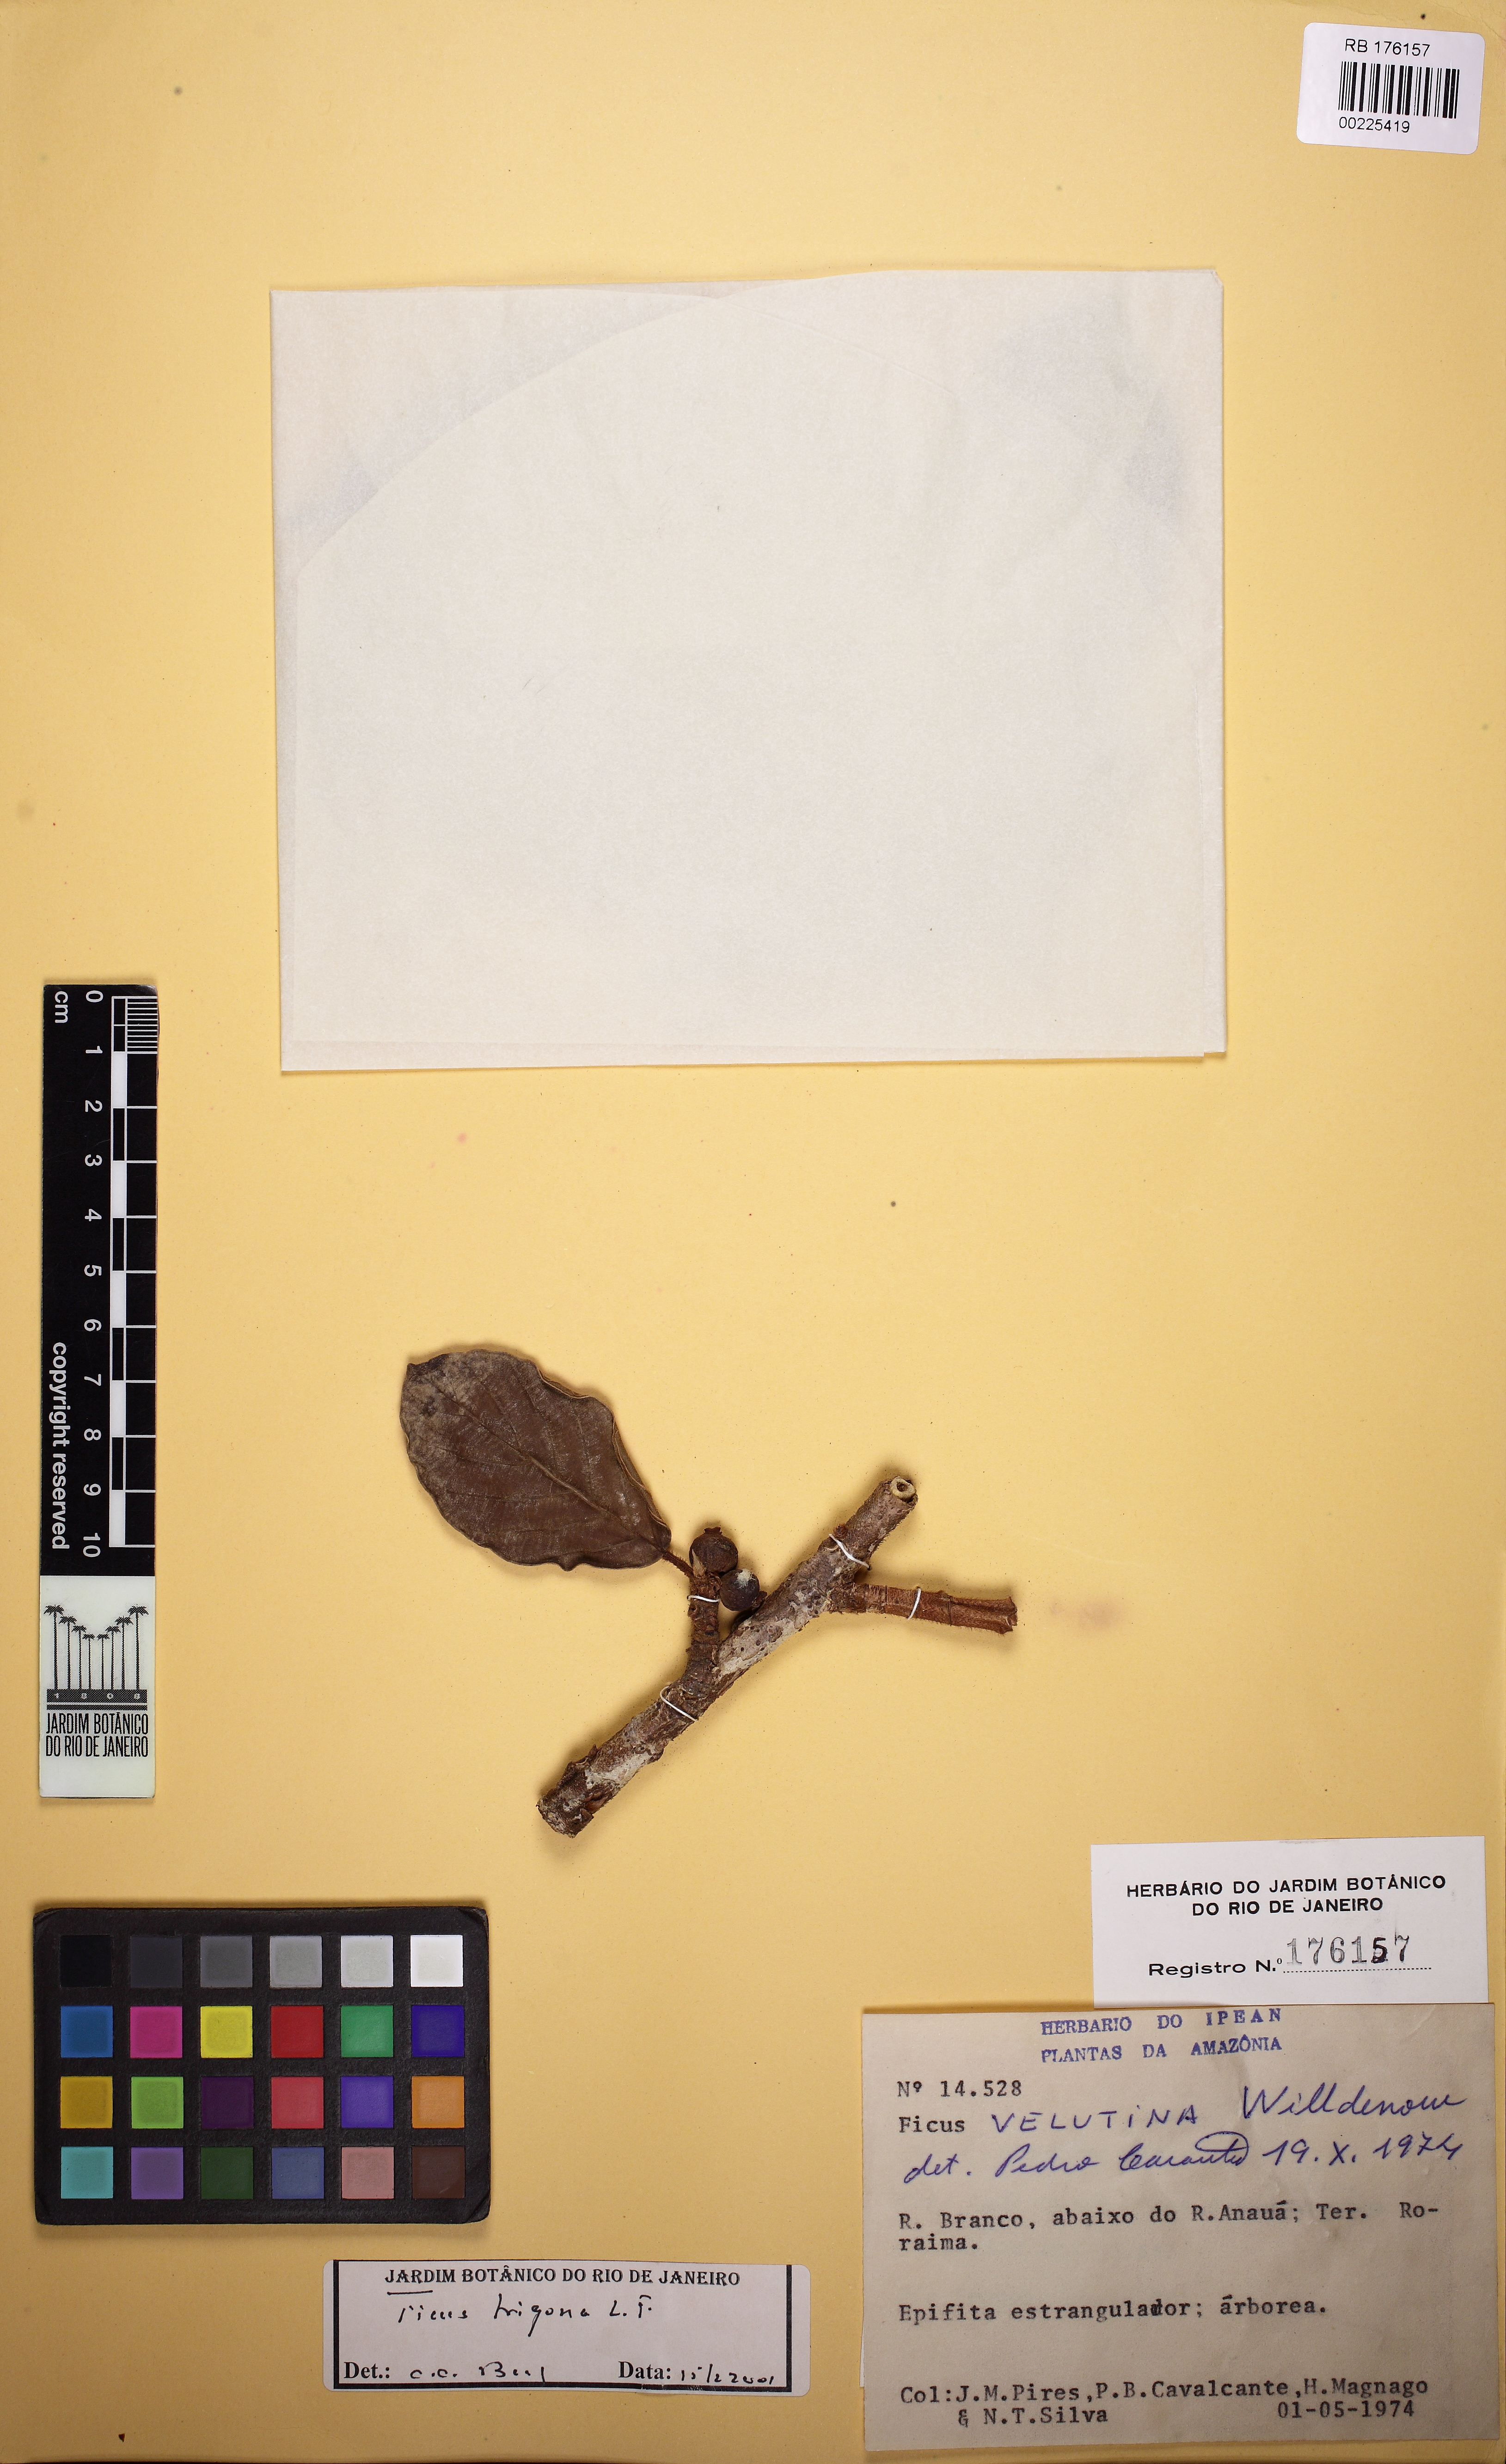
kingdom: Plantae
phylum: Tracheophyta
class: Magnoliopsida
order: Rosales
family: Moraceae
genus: Ficus
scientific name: Ficus trigona
